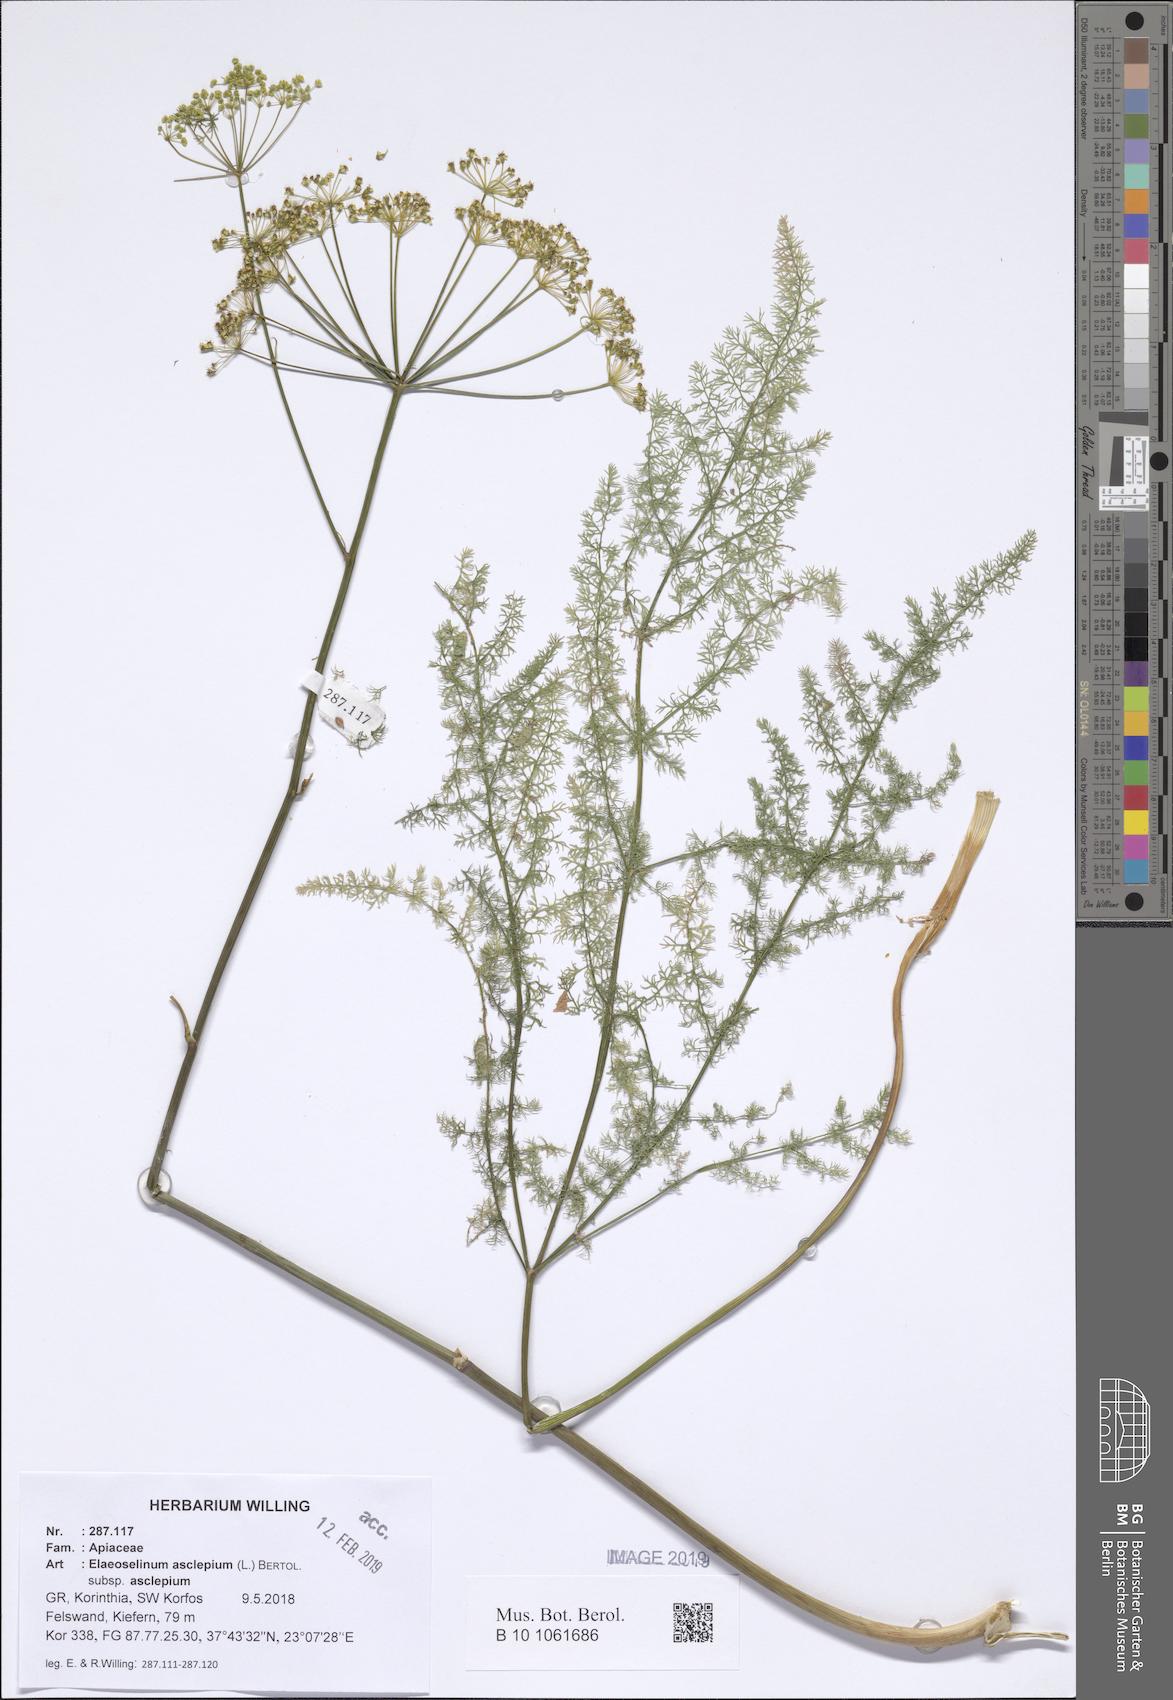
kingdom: Plantae
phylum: Tracheophyta
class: Magnoliopsida
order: Apiales
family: Apiaceae
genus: Thapsia
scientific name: Thapsia asclepium
